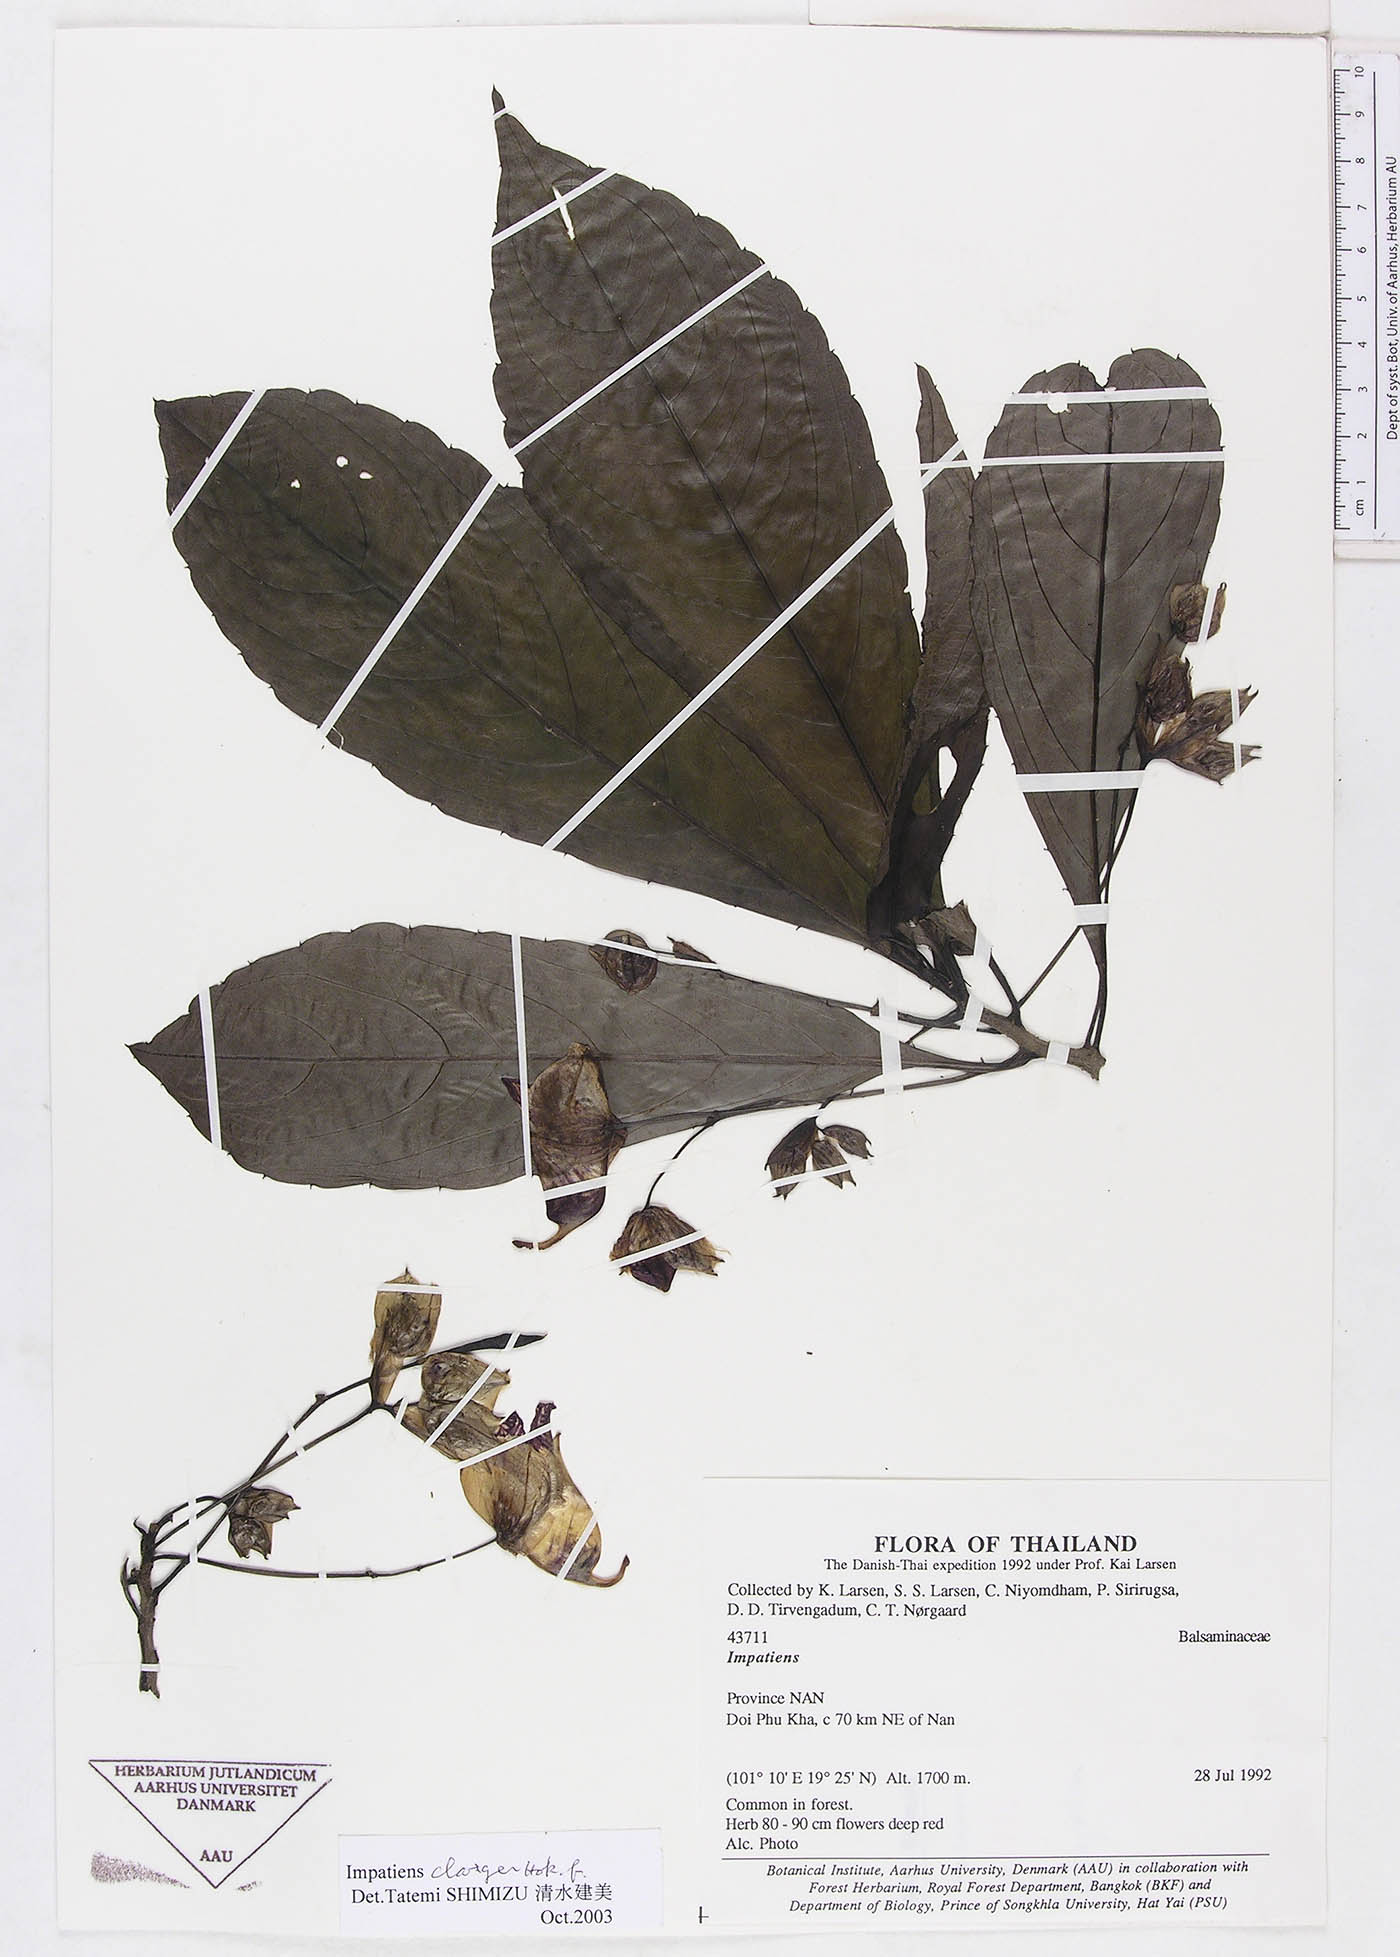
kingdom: Plantae
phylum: Tracheophyta
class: Magnoliopsida
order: Ericales
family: Balsaminaceae
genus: Impatiens
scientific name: Impatiens clavigera
